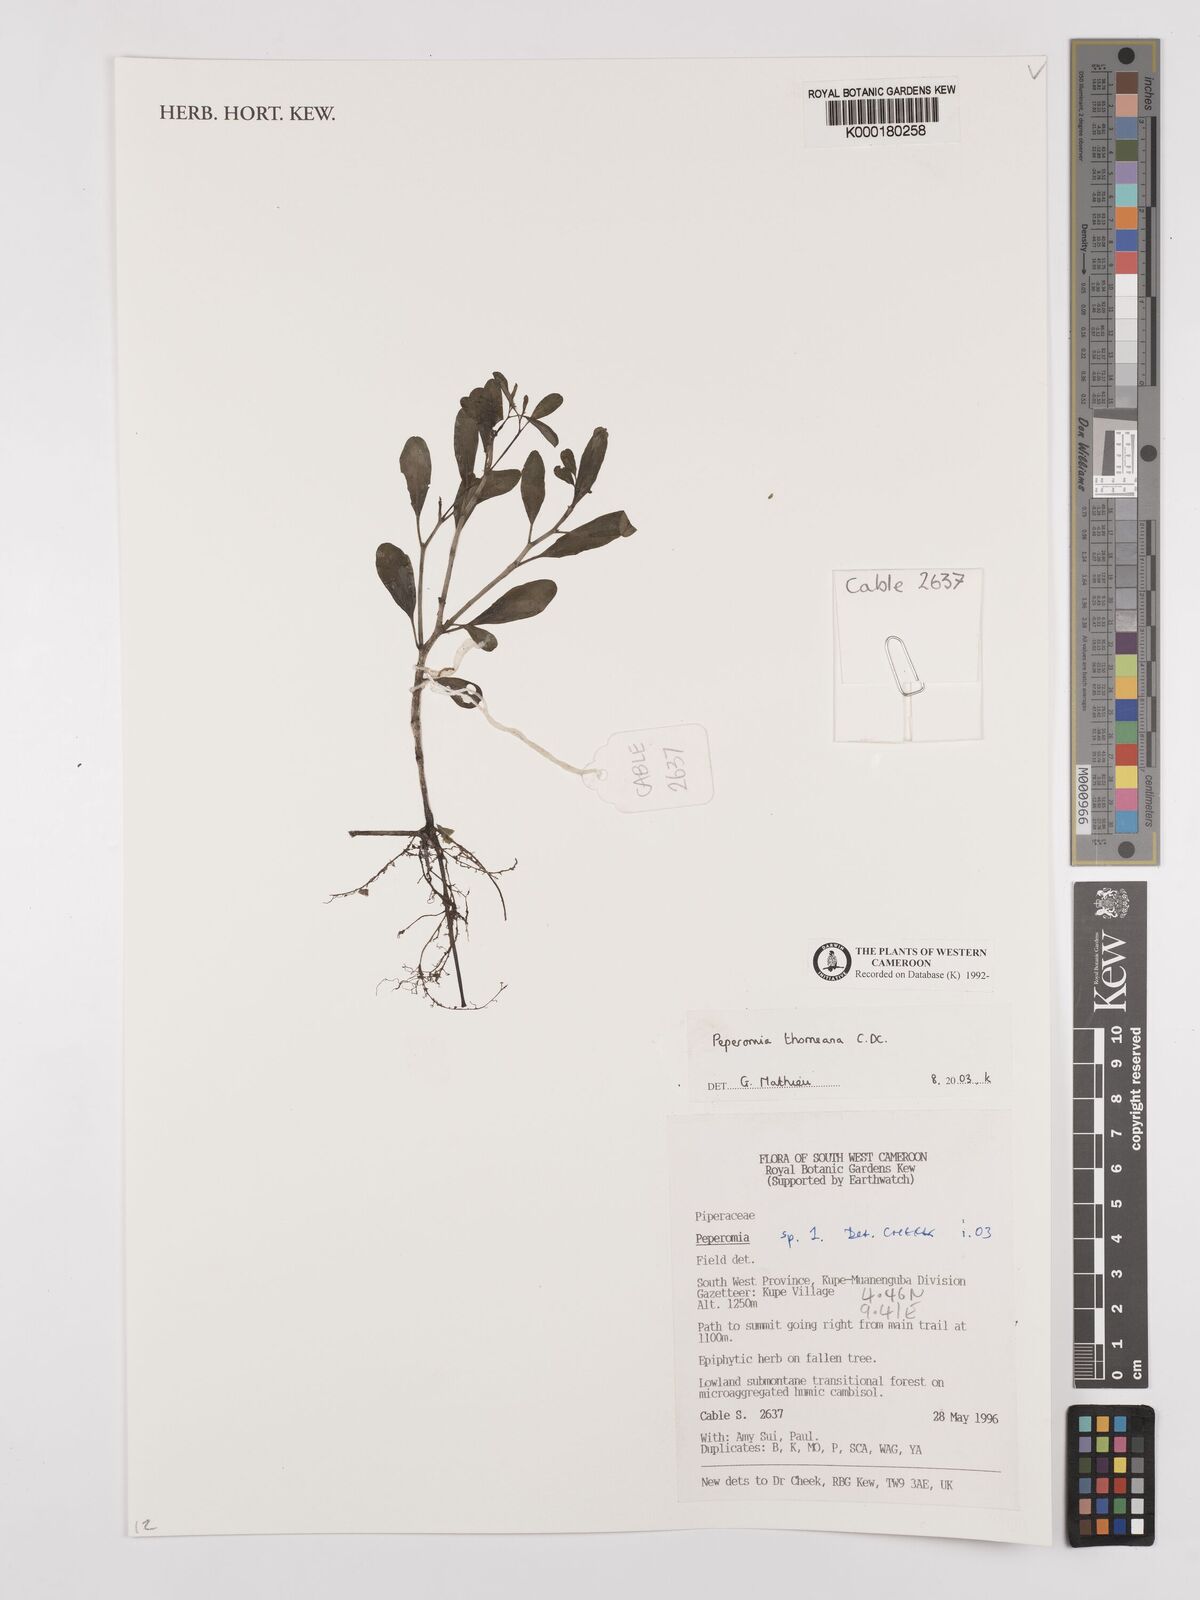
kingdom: Plantae
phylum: Tracheophyta
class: Magnoliopsida
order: Piperales
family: Piperaceae
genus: Peperomia
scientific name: Peperomia thomeana
